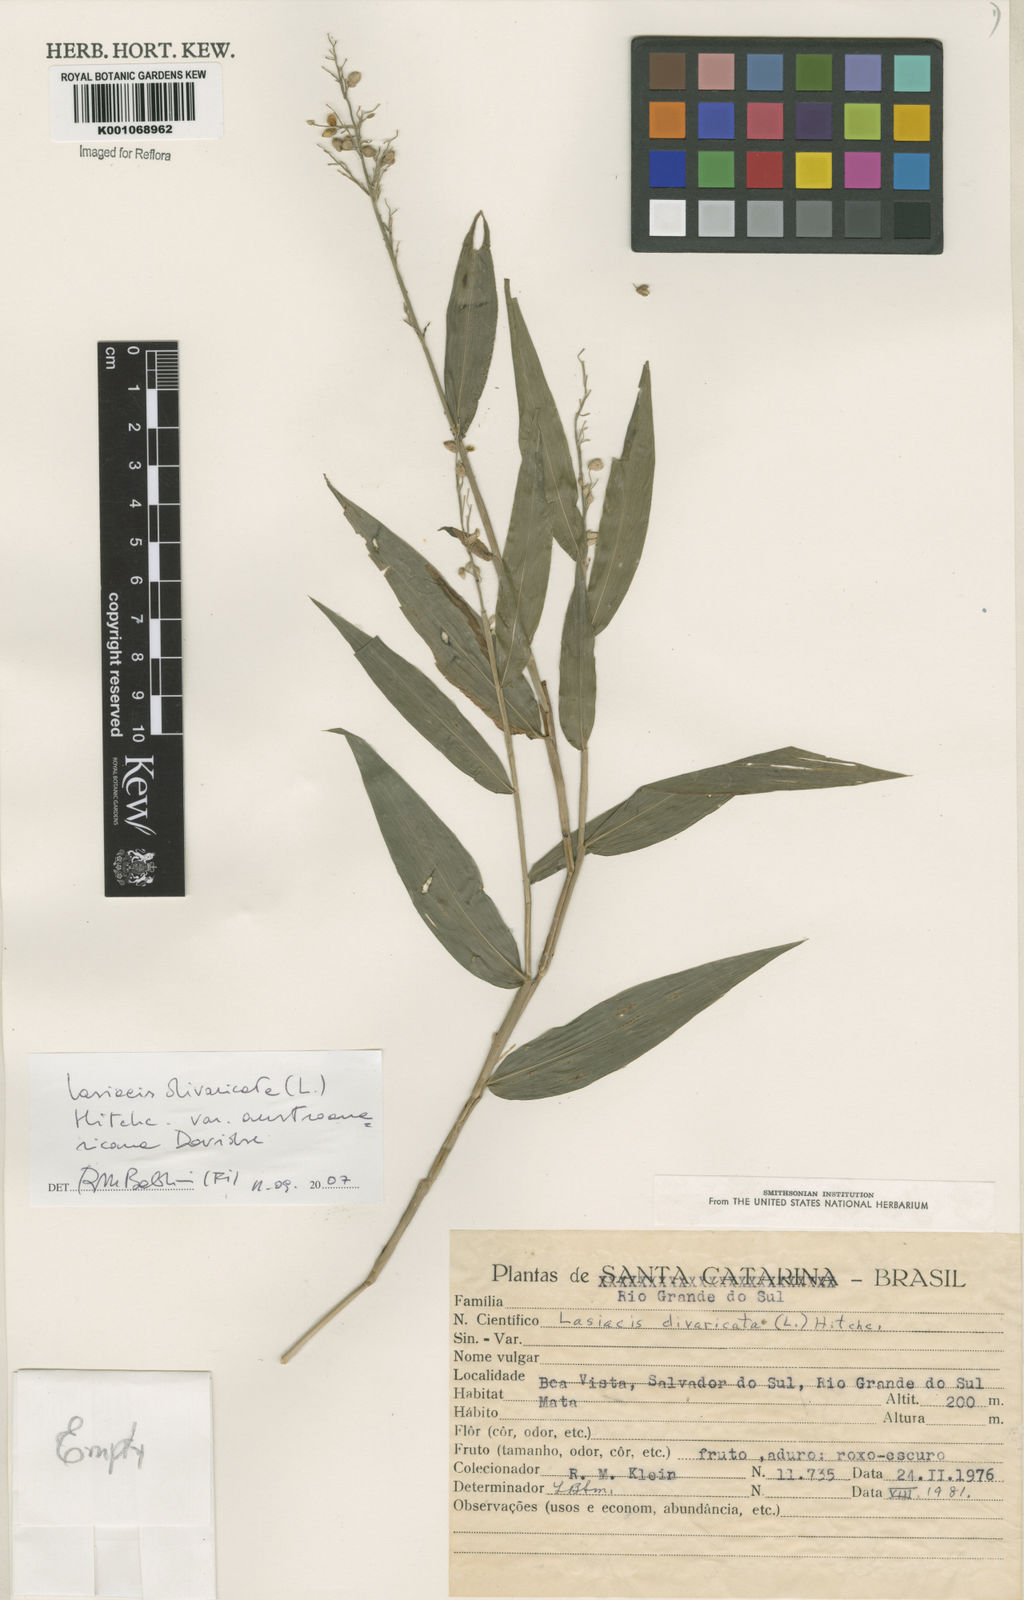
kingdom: Plantae
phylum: Tracheophyta
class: Liliopsida
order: Poales
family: Poaceae
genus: Lasiacis
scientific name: Lasiacis divaricata
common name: Smallcane
